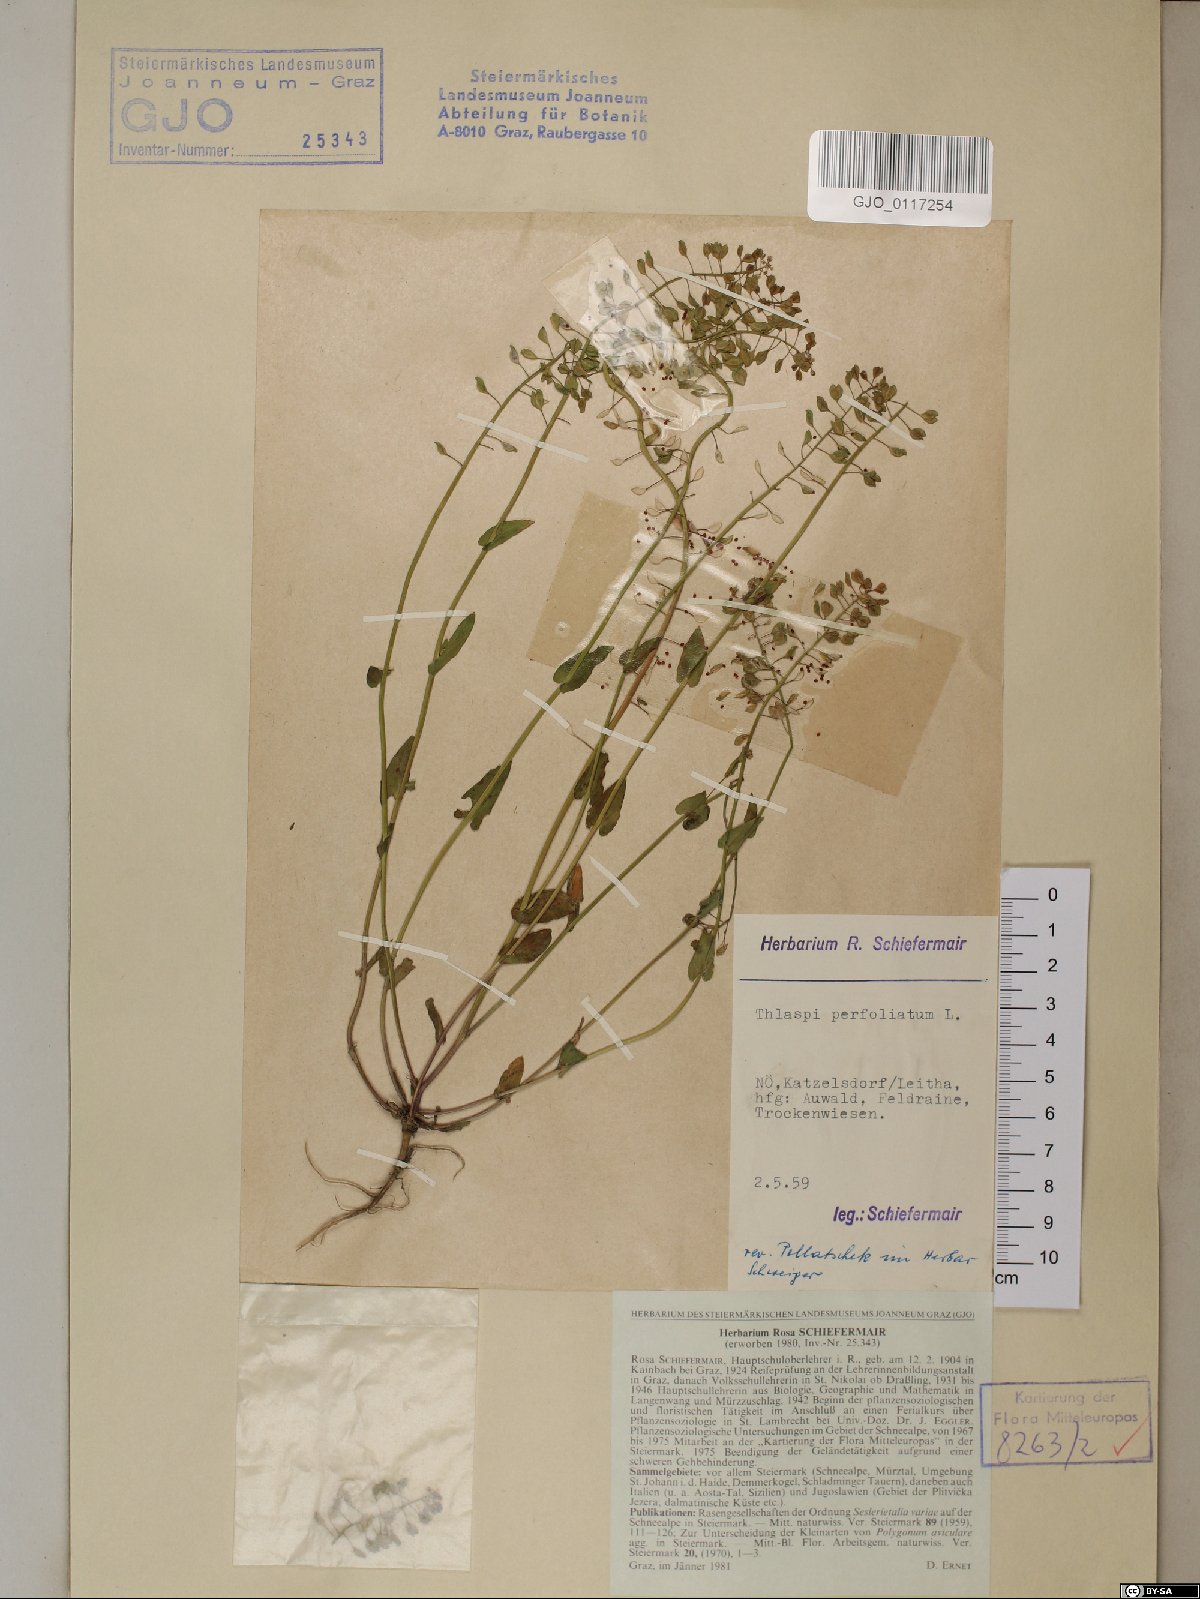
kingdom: Plantae
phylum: Tracheophyta
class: Magnoliopsida
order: Brassicales
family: Brassicaceae
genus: Noccaea
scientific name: Noccaea perfoliata
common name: Perfoliate pennycress
